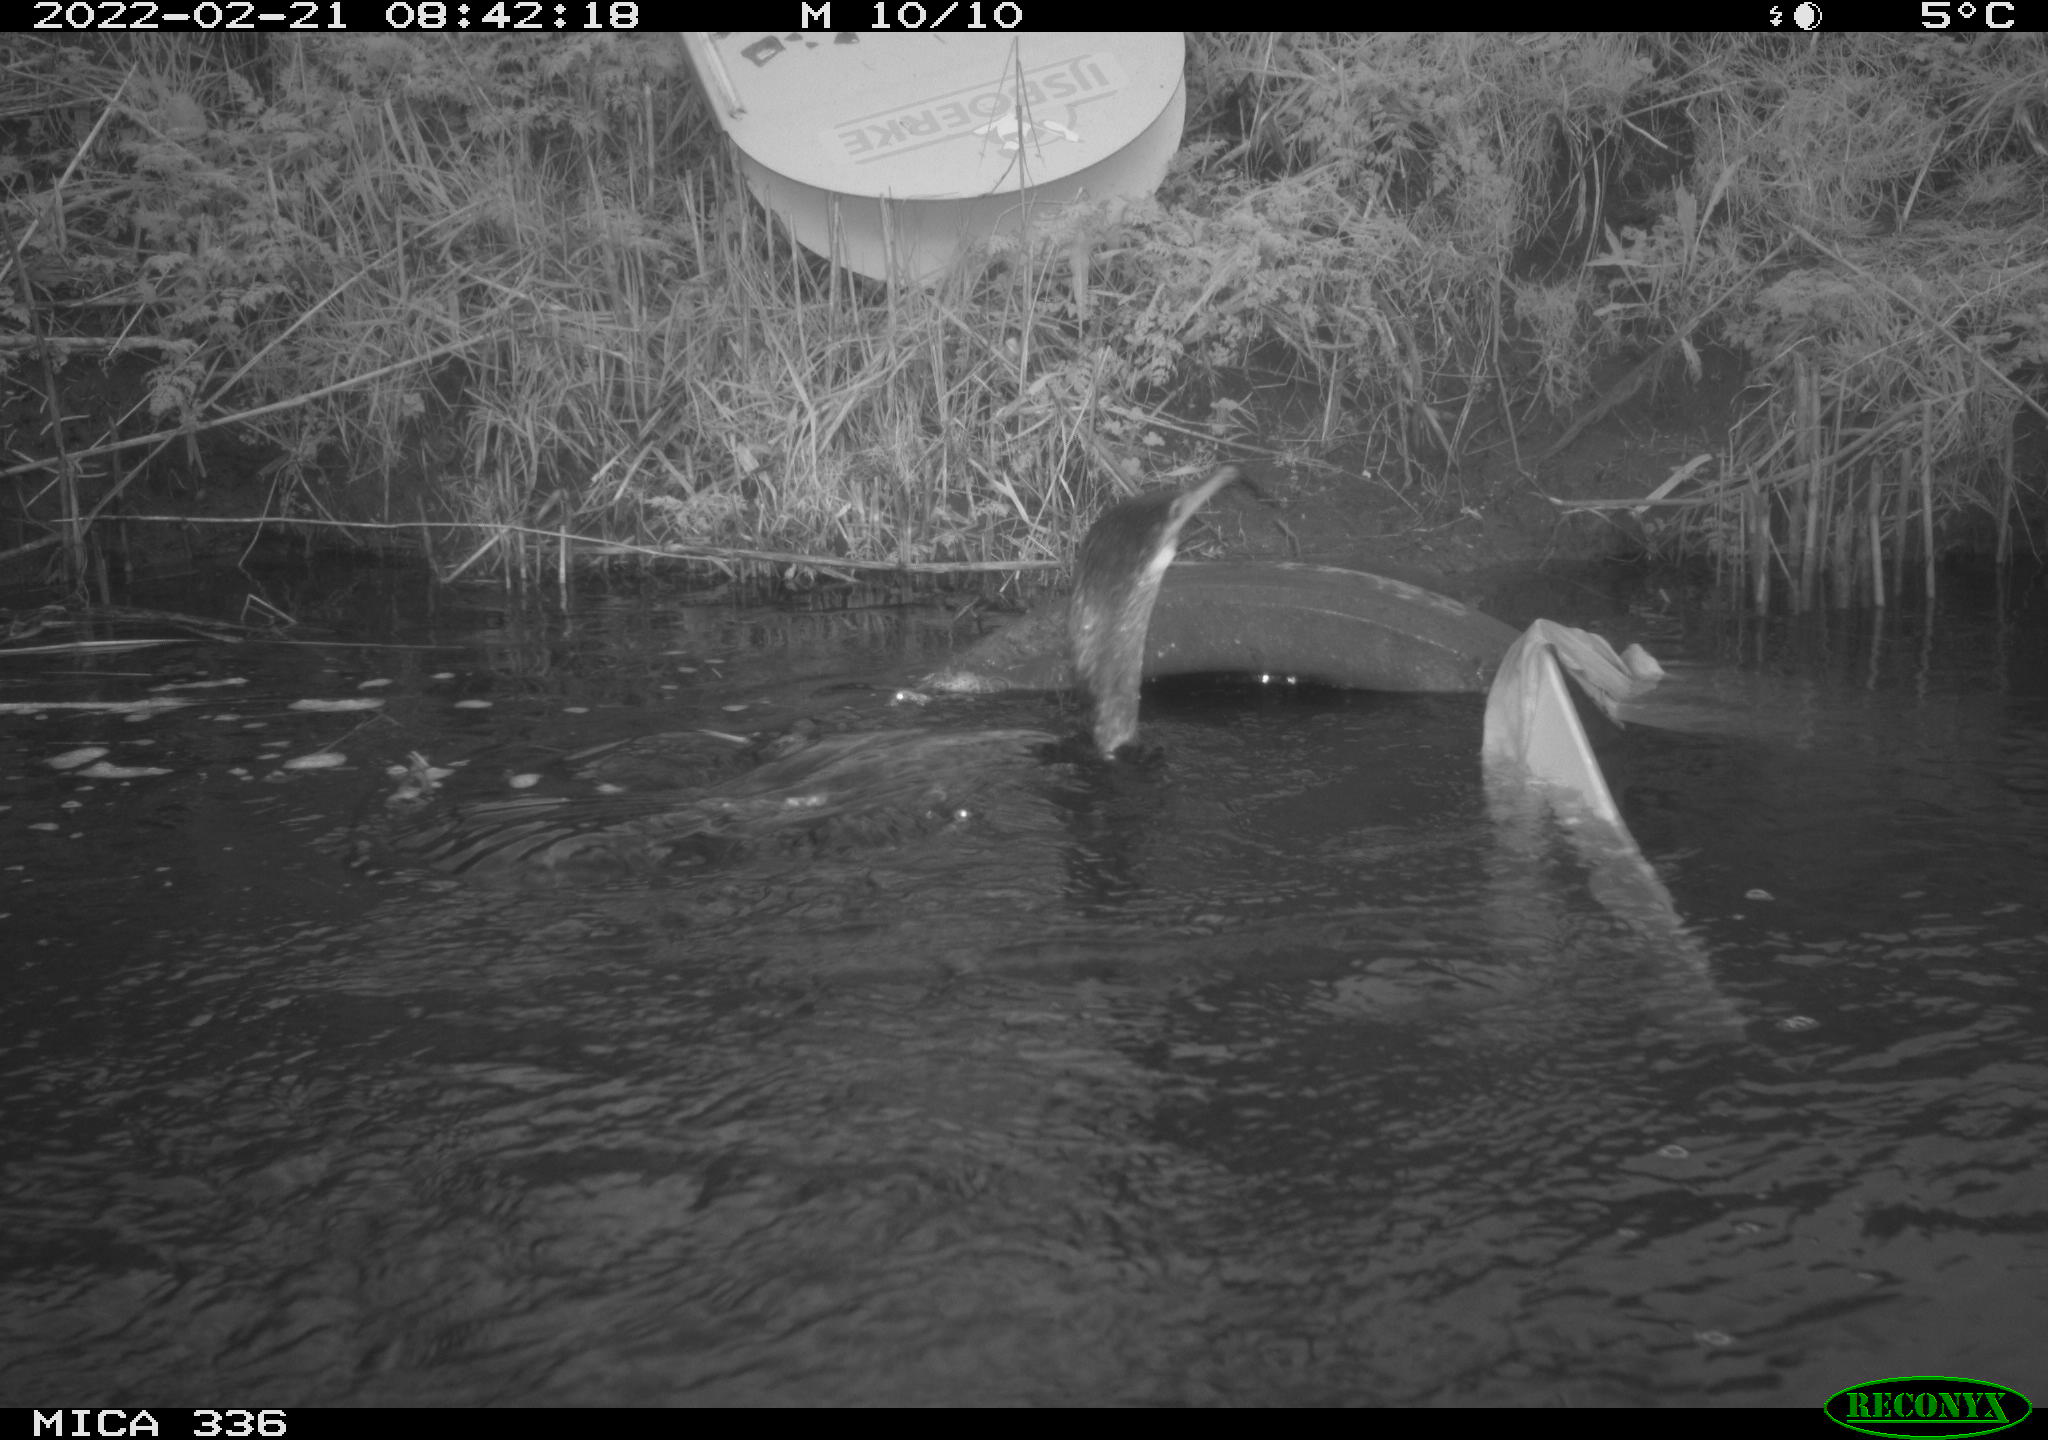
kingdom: Animalia
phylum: Chordata
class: Aves
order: Suliformes
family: Phalacrocoracidae
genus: Phalacrocorax
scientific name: Phalacrocorax carbo
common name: Great cormorant
